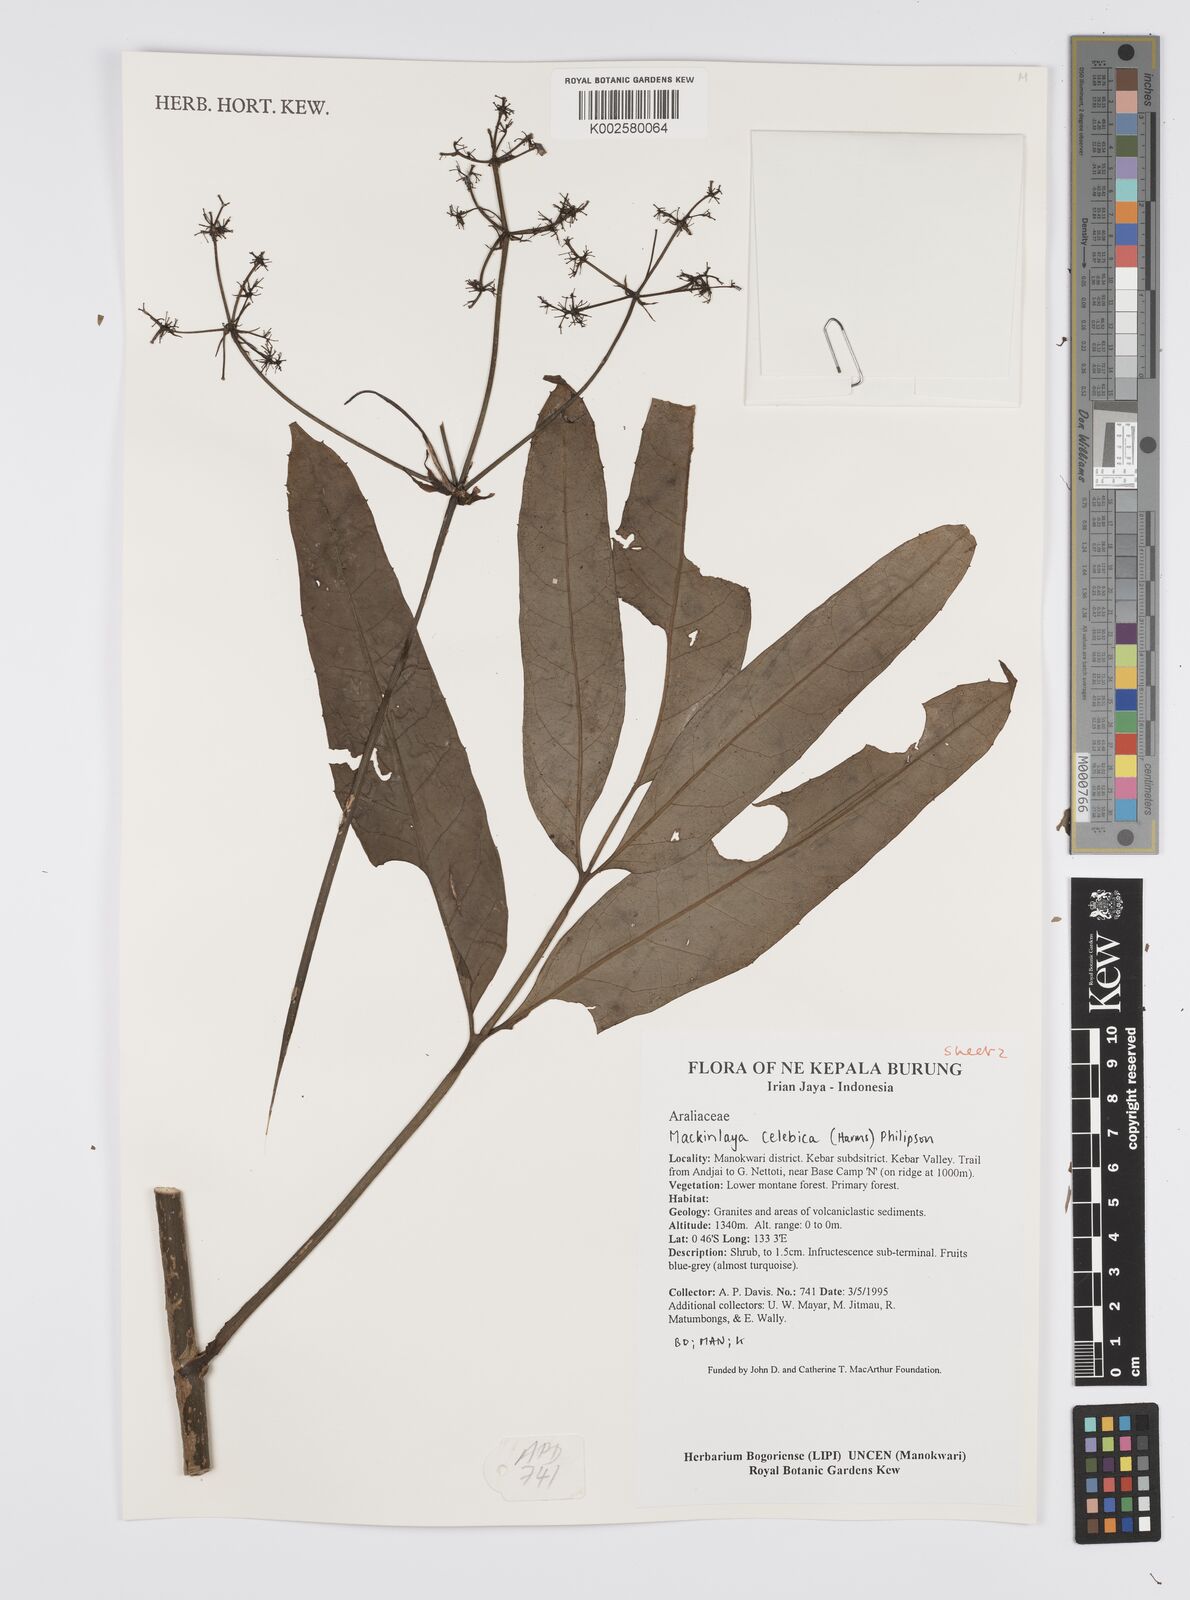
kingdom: Plantae
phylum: Tracheophyta
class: Magnoliopsida
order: Apiales
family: Apiaceae
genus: Mackinlaya
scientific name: Mackinlaya
